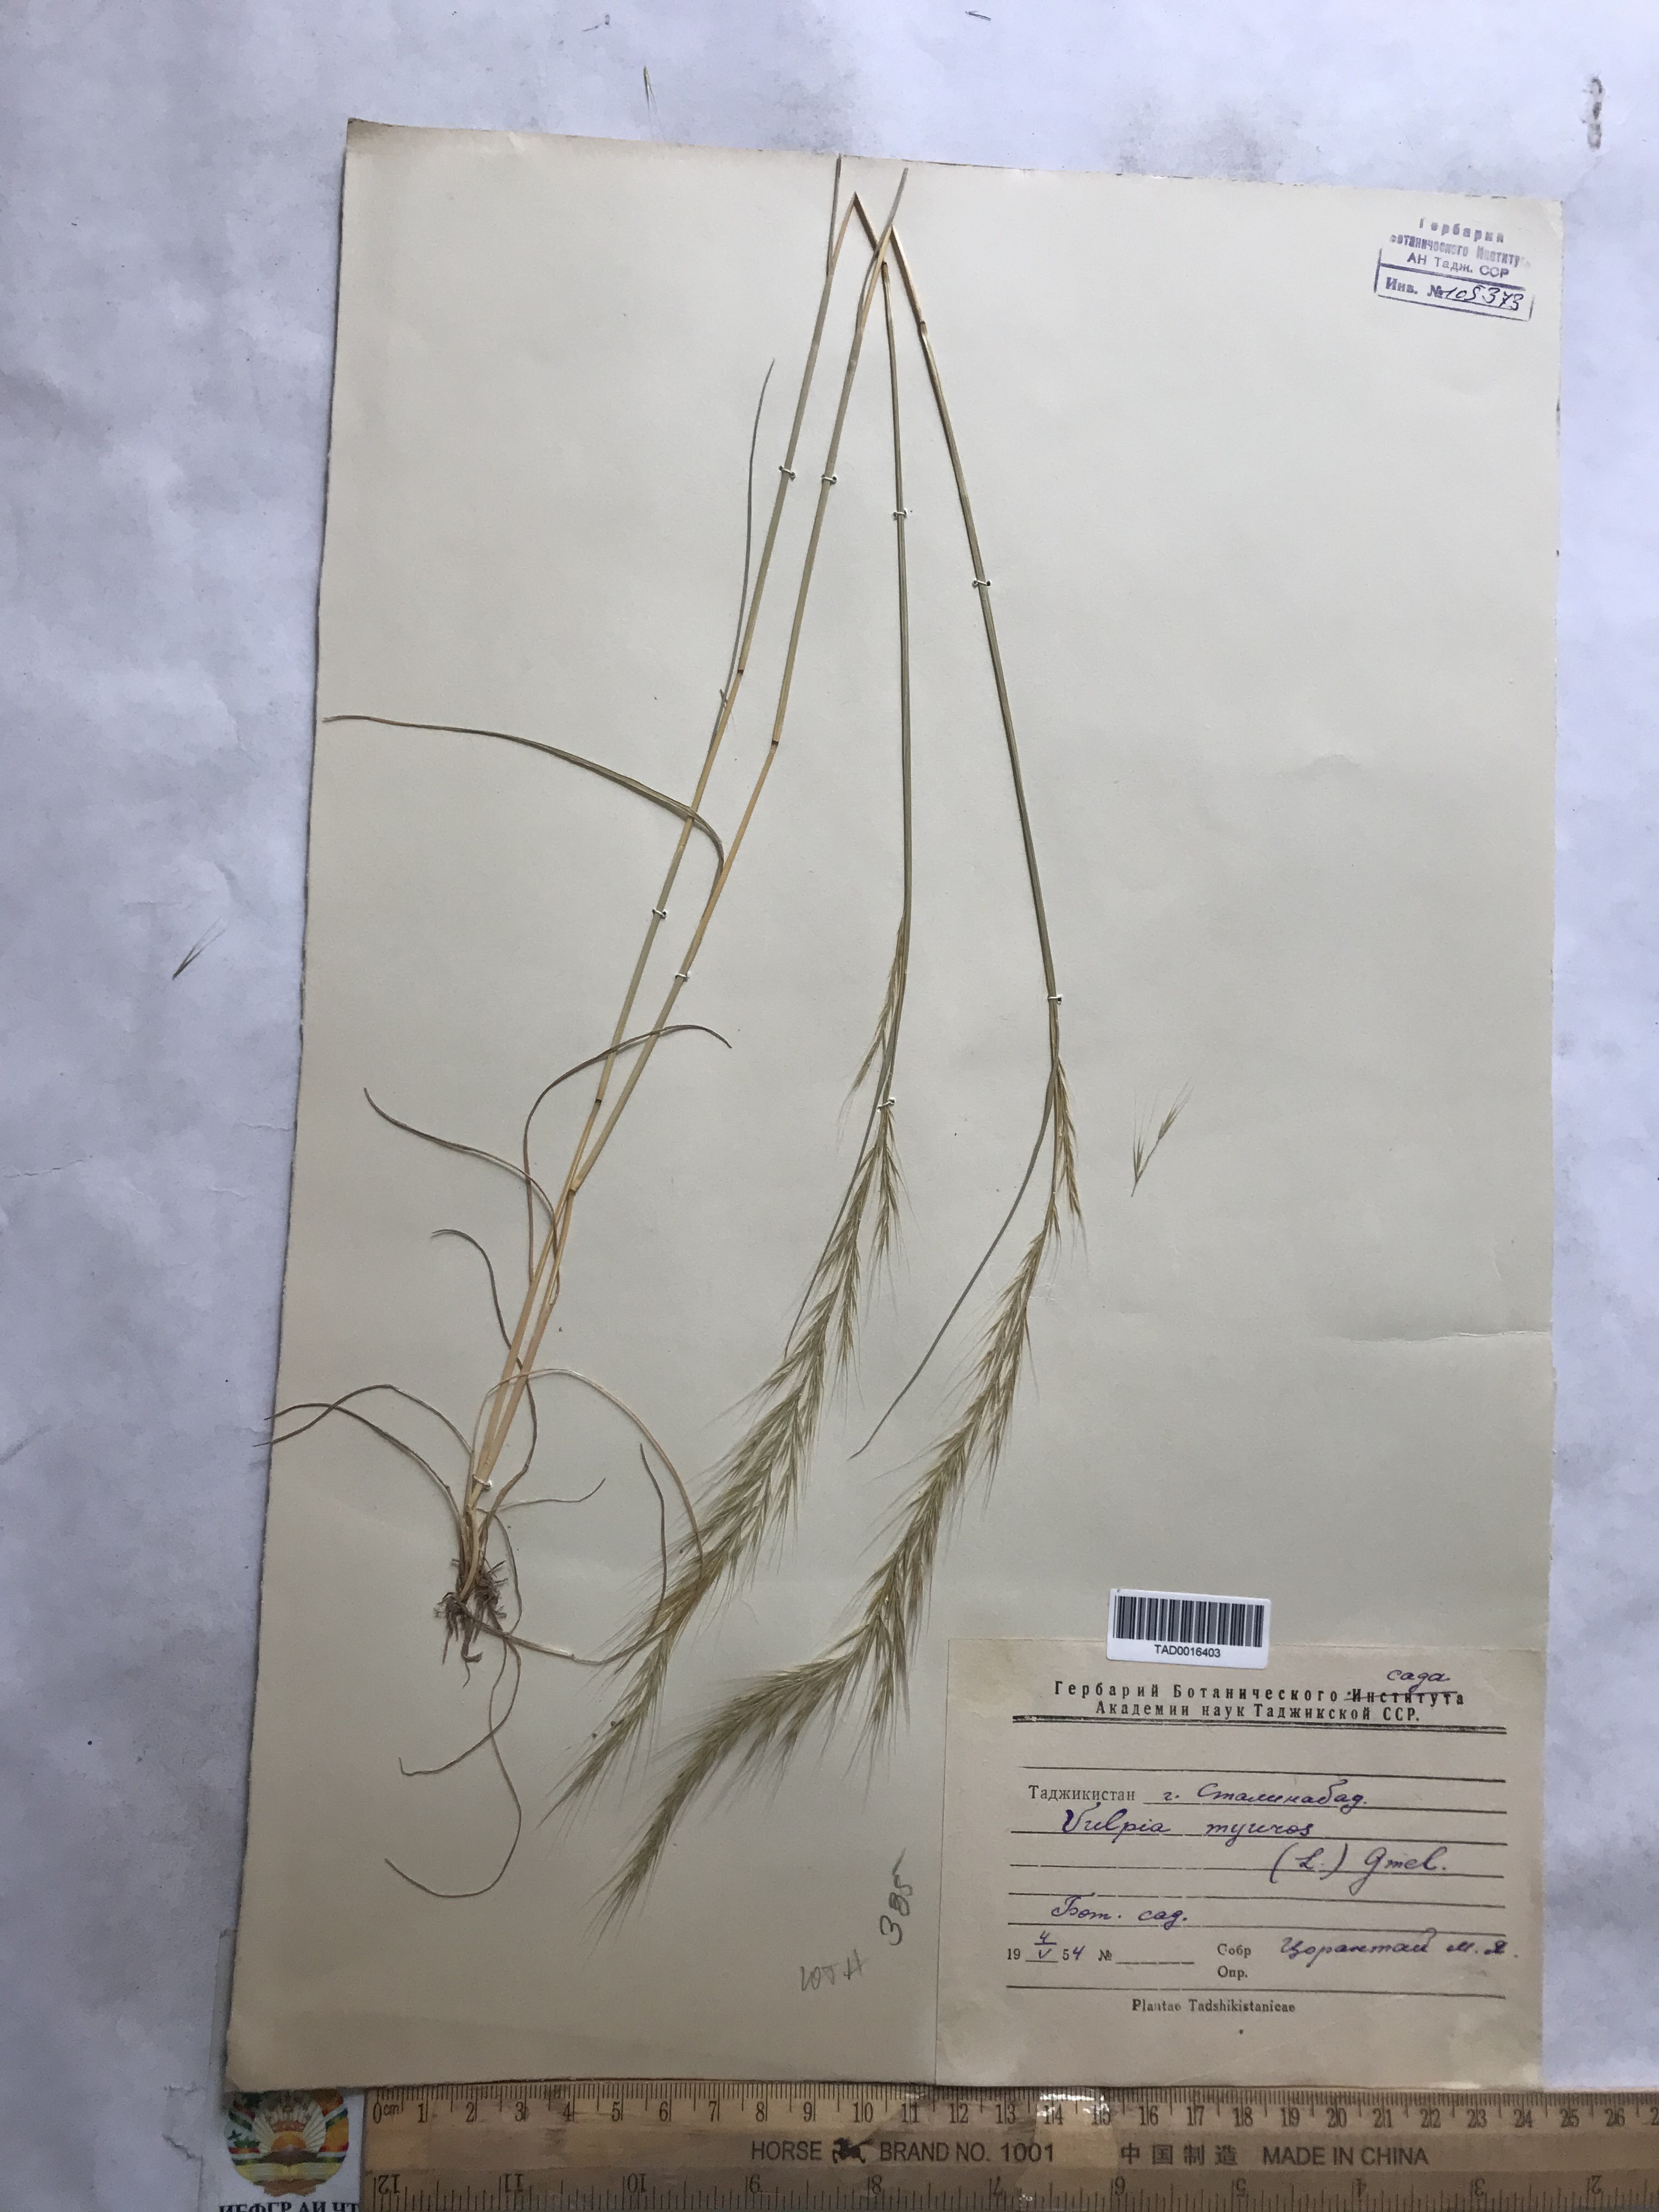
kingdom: Plantae
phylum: Tracheophyta
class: Liliopsida
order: Poales
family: Poaceae
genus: Festuca
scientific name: Festuca myuros
